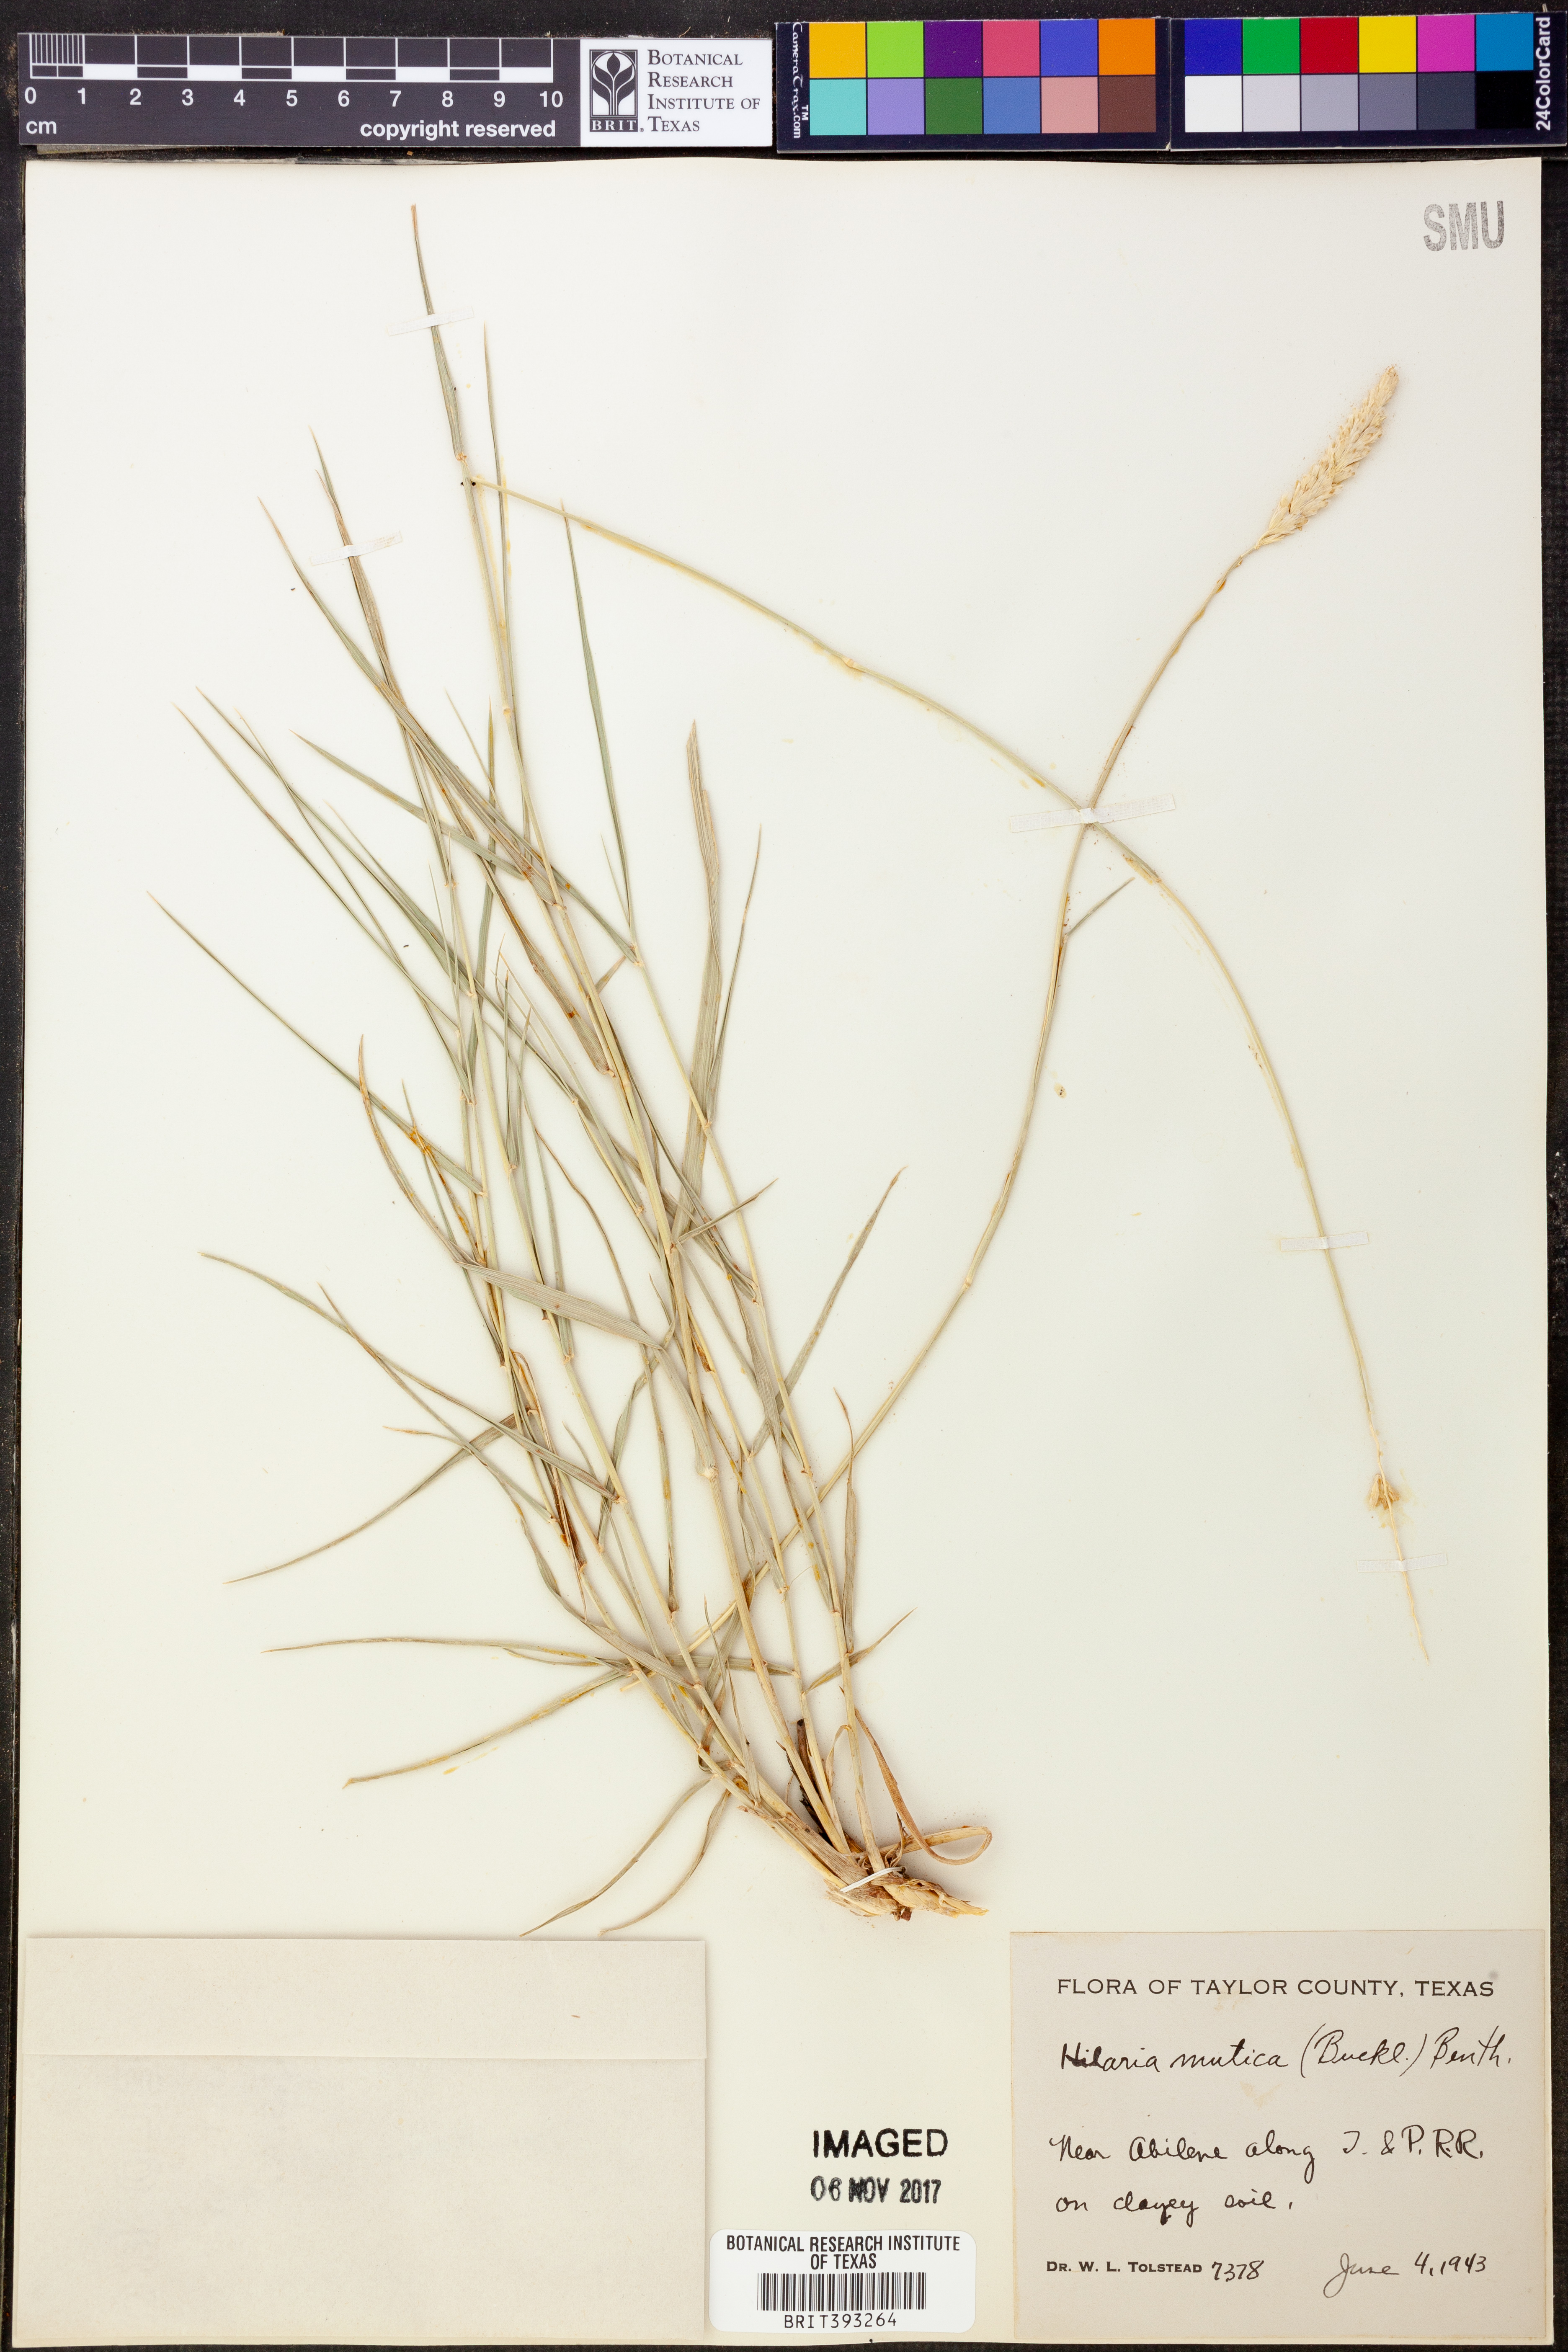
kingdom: Plantae
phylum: Tracheophyta
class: Liliopsida
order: Poales
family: Poaceae
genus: Hilaria
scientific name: Hilaria mutica
